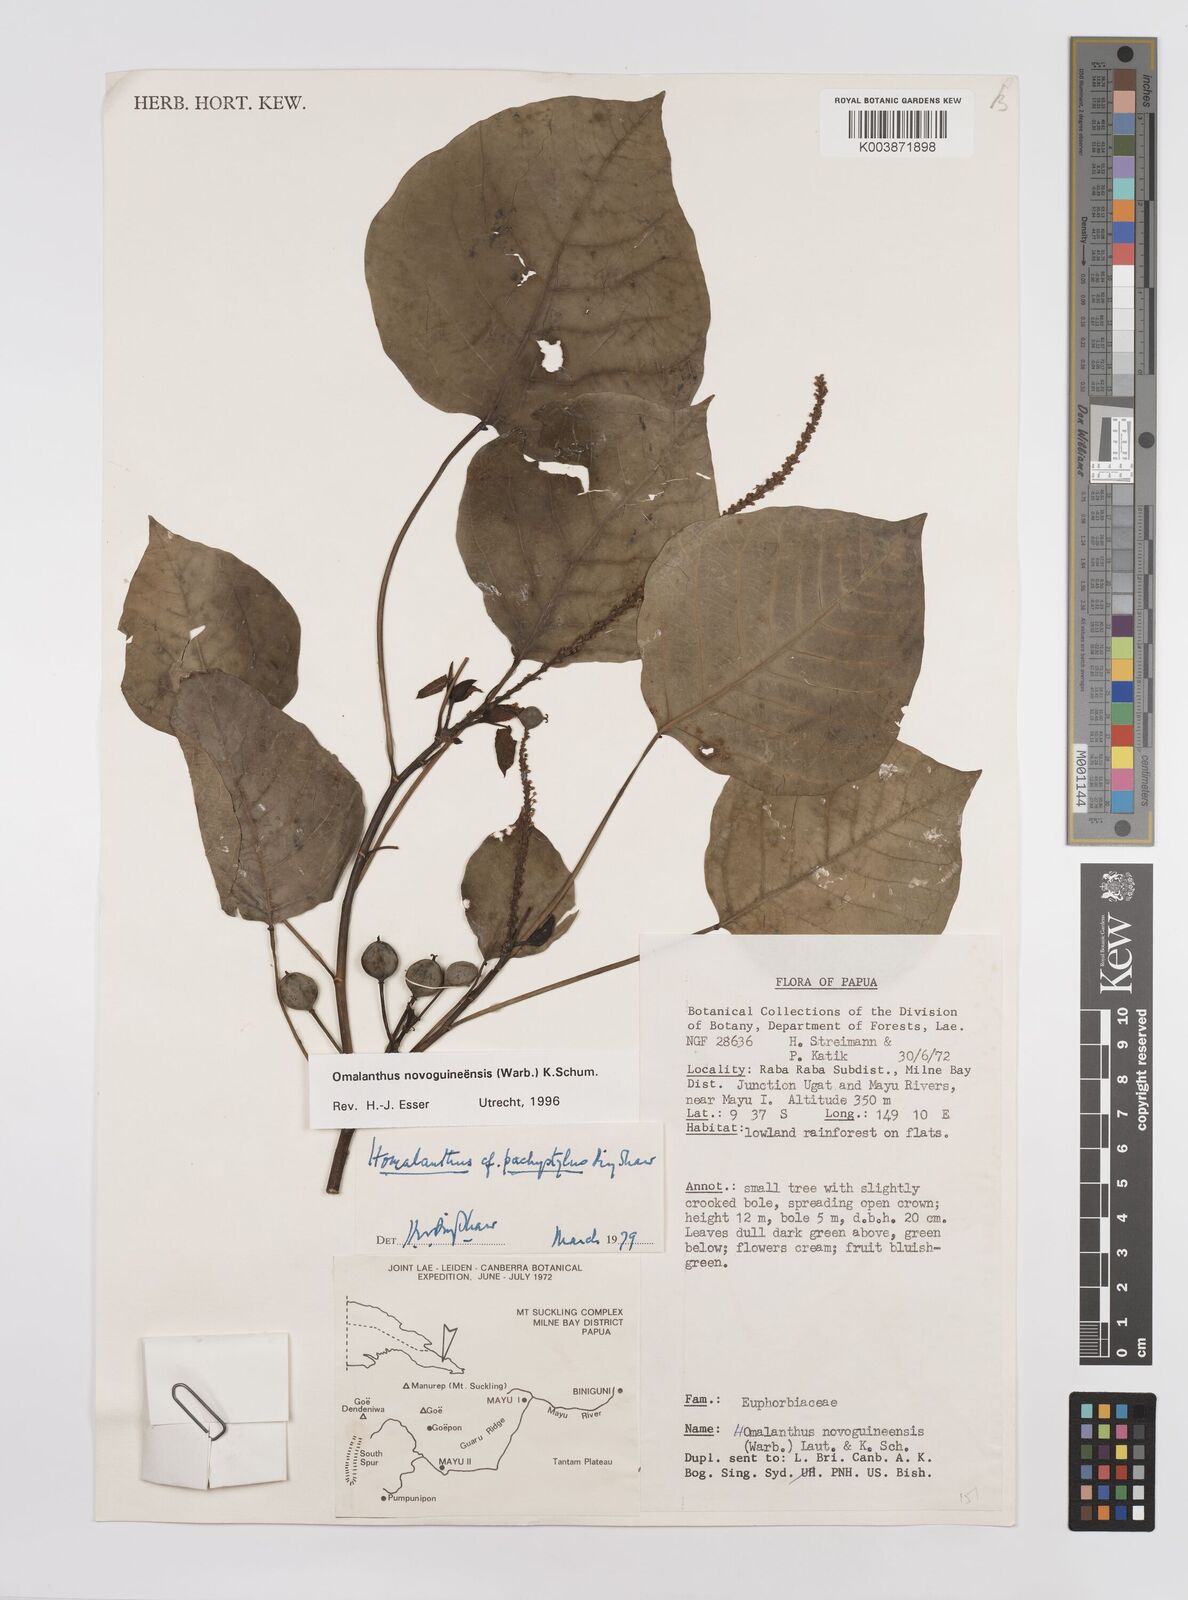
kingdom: Plantae
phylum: Tracheophyta
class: Magnoliopsida
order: Malpighiales
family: Euphorbiaceae
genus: Homalanthus
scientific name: Homalanthus novoguineensis
